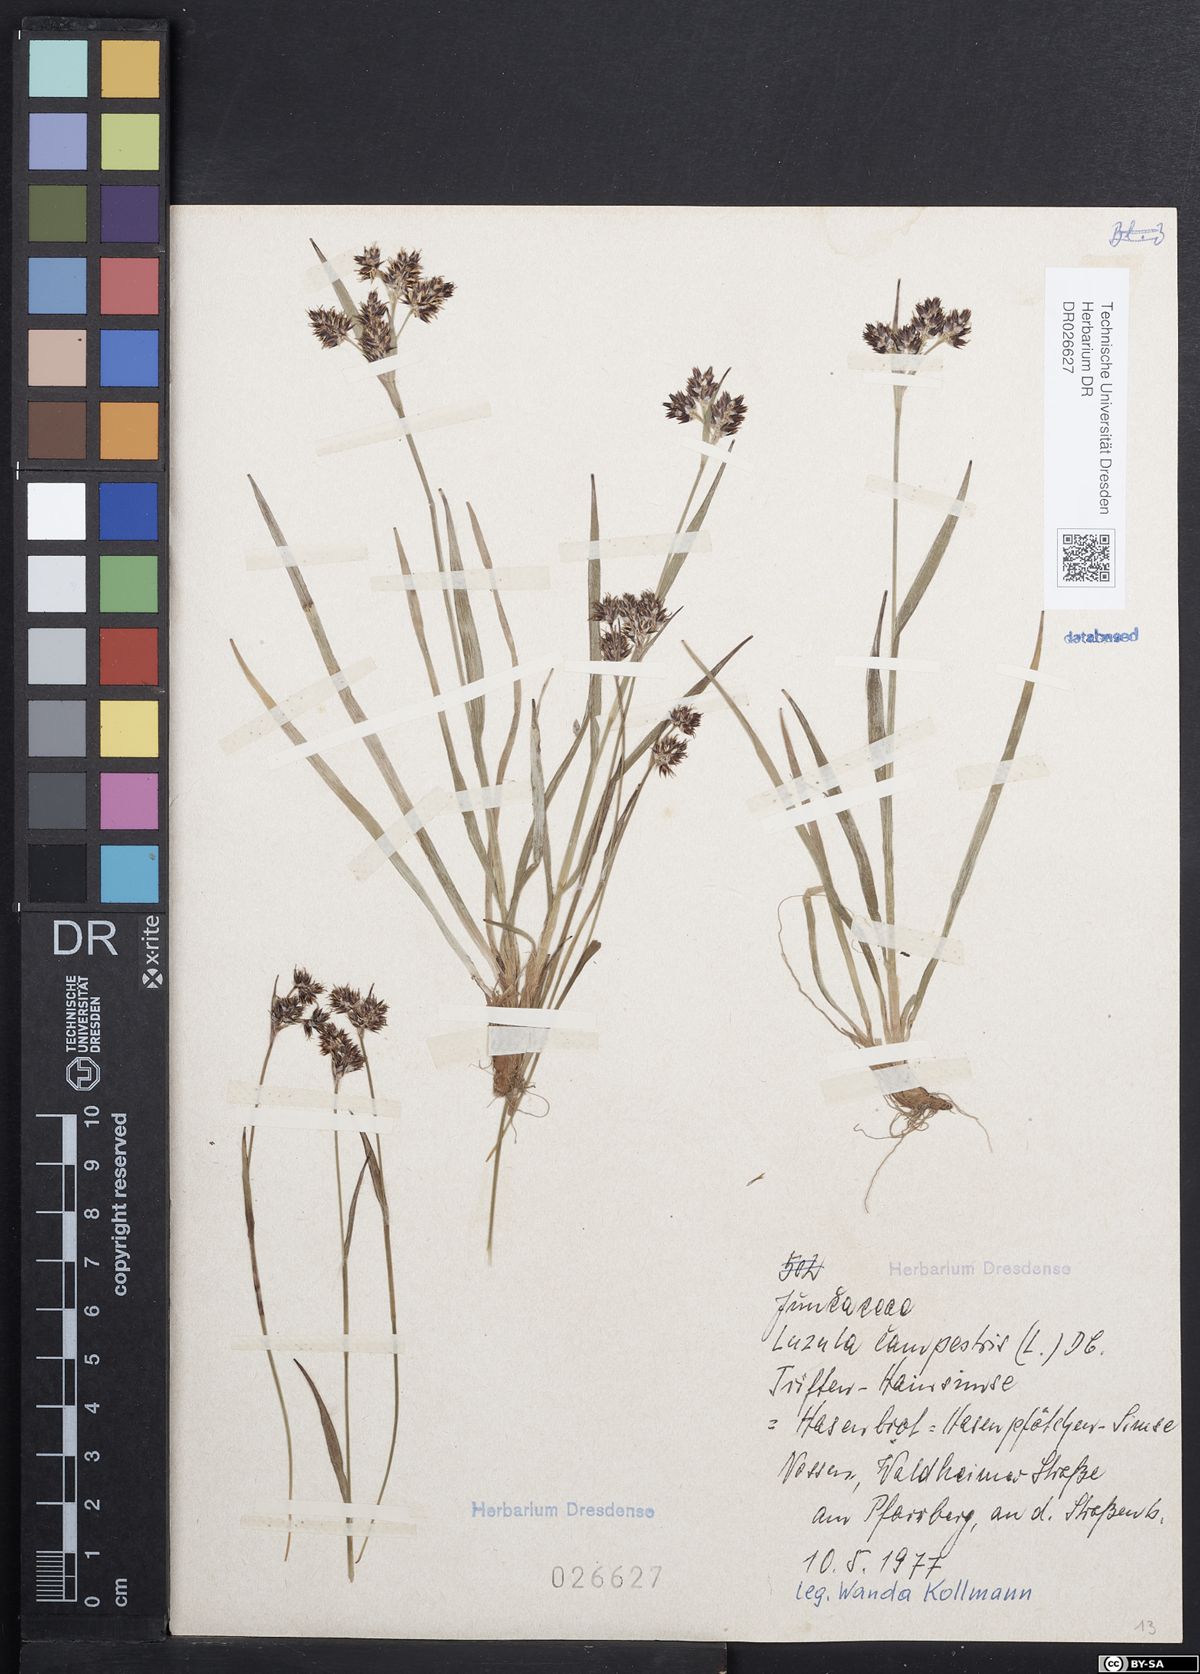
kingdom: Plantae
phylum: Tracheophyta
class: Liliopsida
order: Poales
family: Juncaceae
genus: Luzula
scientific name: Luzula campestris
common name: Field wood-rush
